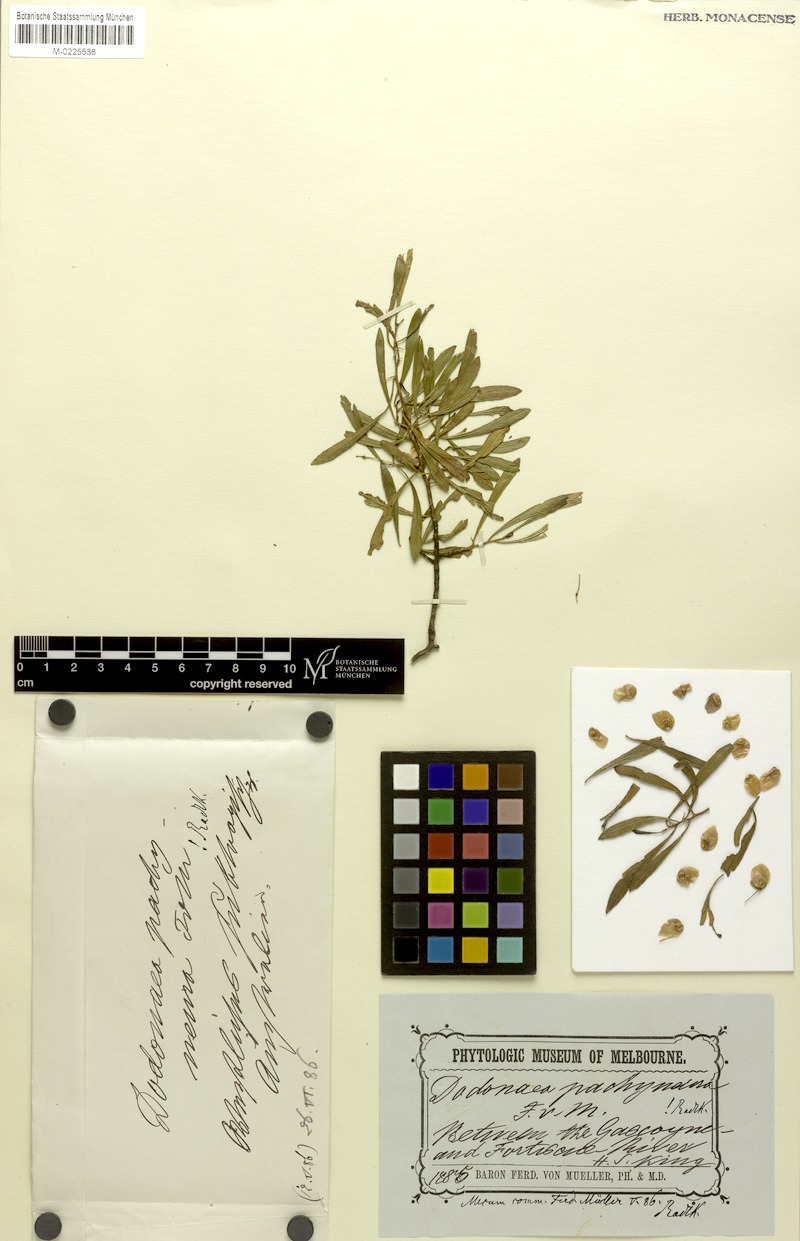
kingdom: Plantae
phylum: Tracheophyta
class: Magnoliopsida
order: Sapindales
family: Sapindaceae
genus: Dodonaea
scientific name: Dodonaea pachyneura
